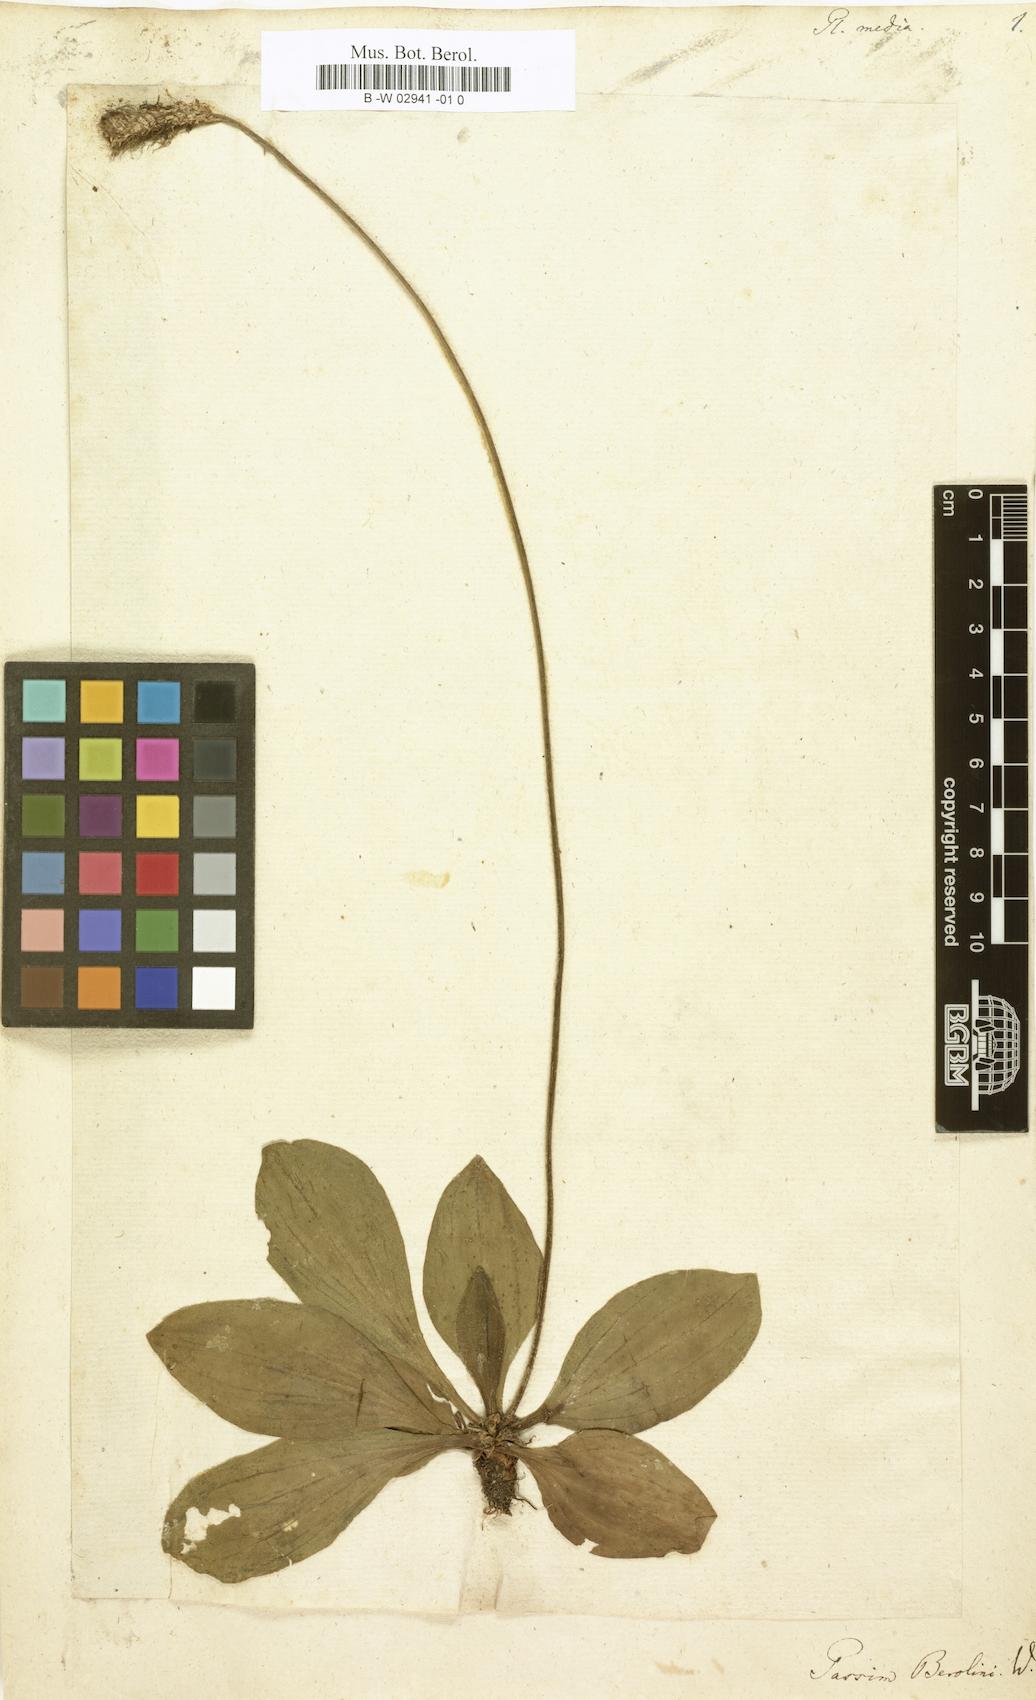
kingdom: Plantae
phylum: Tracheophyta
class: Magnoliopsida
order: Lamiales
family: Plantaginaceae
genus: Plantago
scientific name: Plantago media
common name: Hoary plantain
